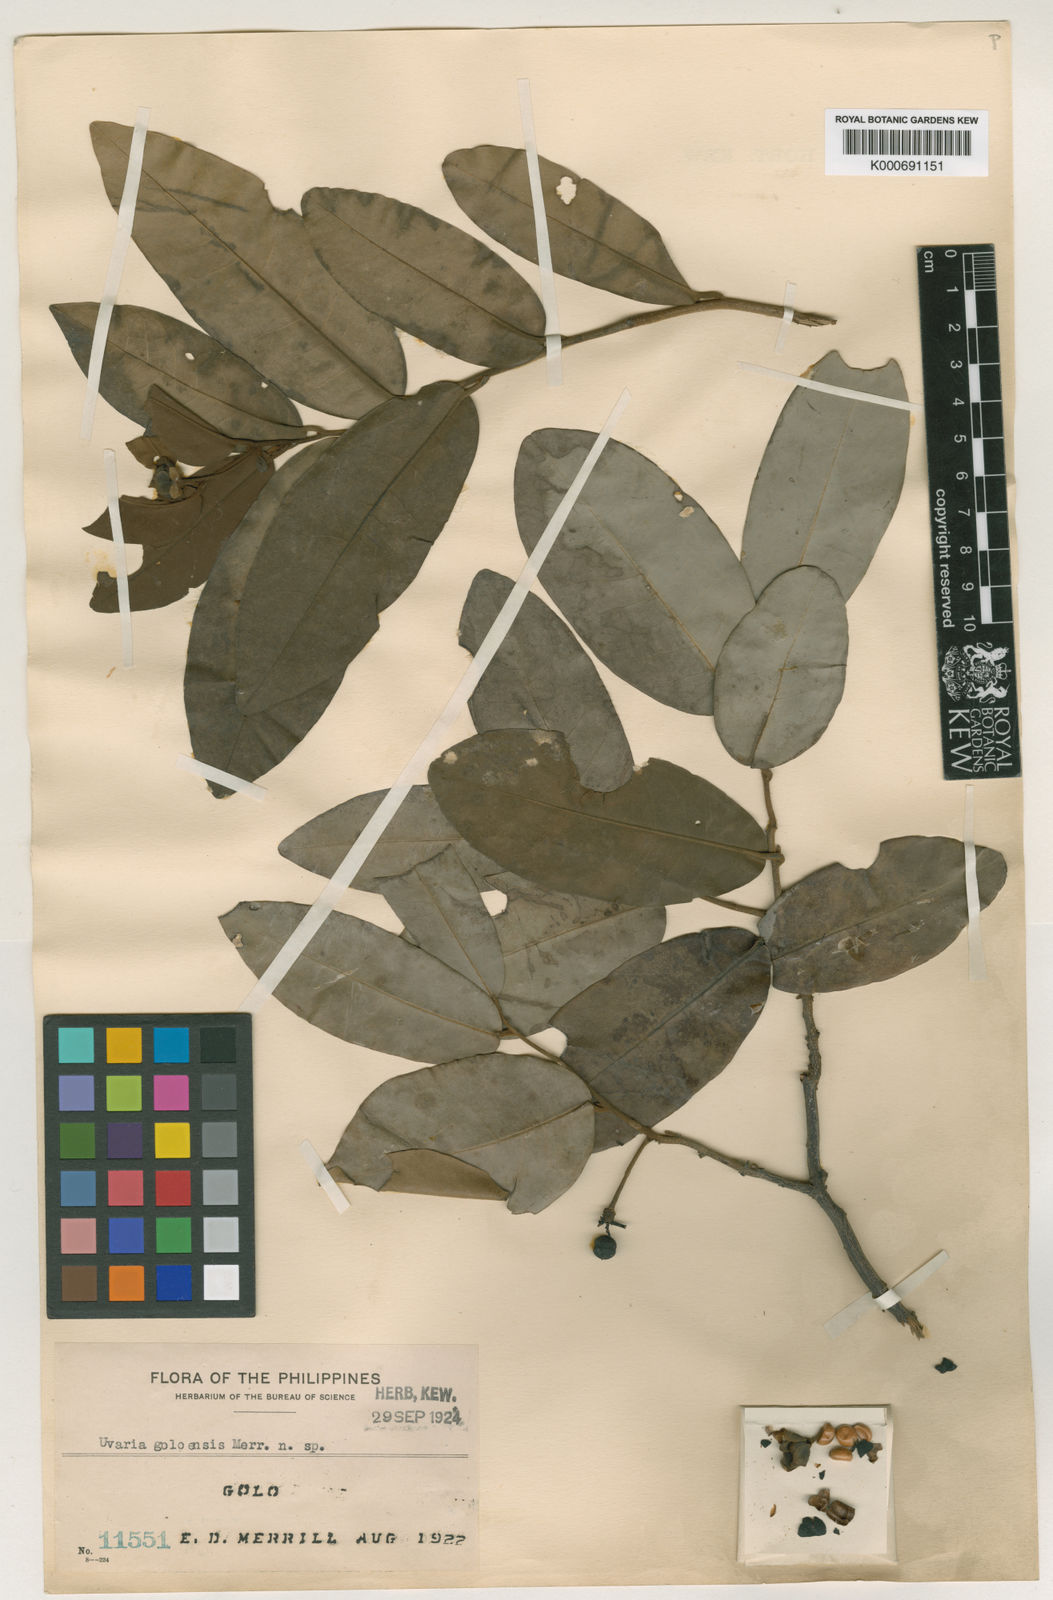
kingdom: Plantae
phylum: Tracheophyta
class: Magnoliopsida
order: Magnoliales
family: Annonaceae
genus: Uvaria
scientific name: Uvaria goloensis
